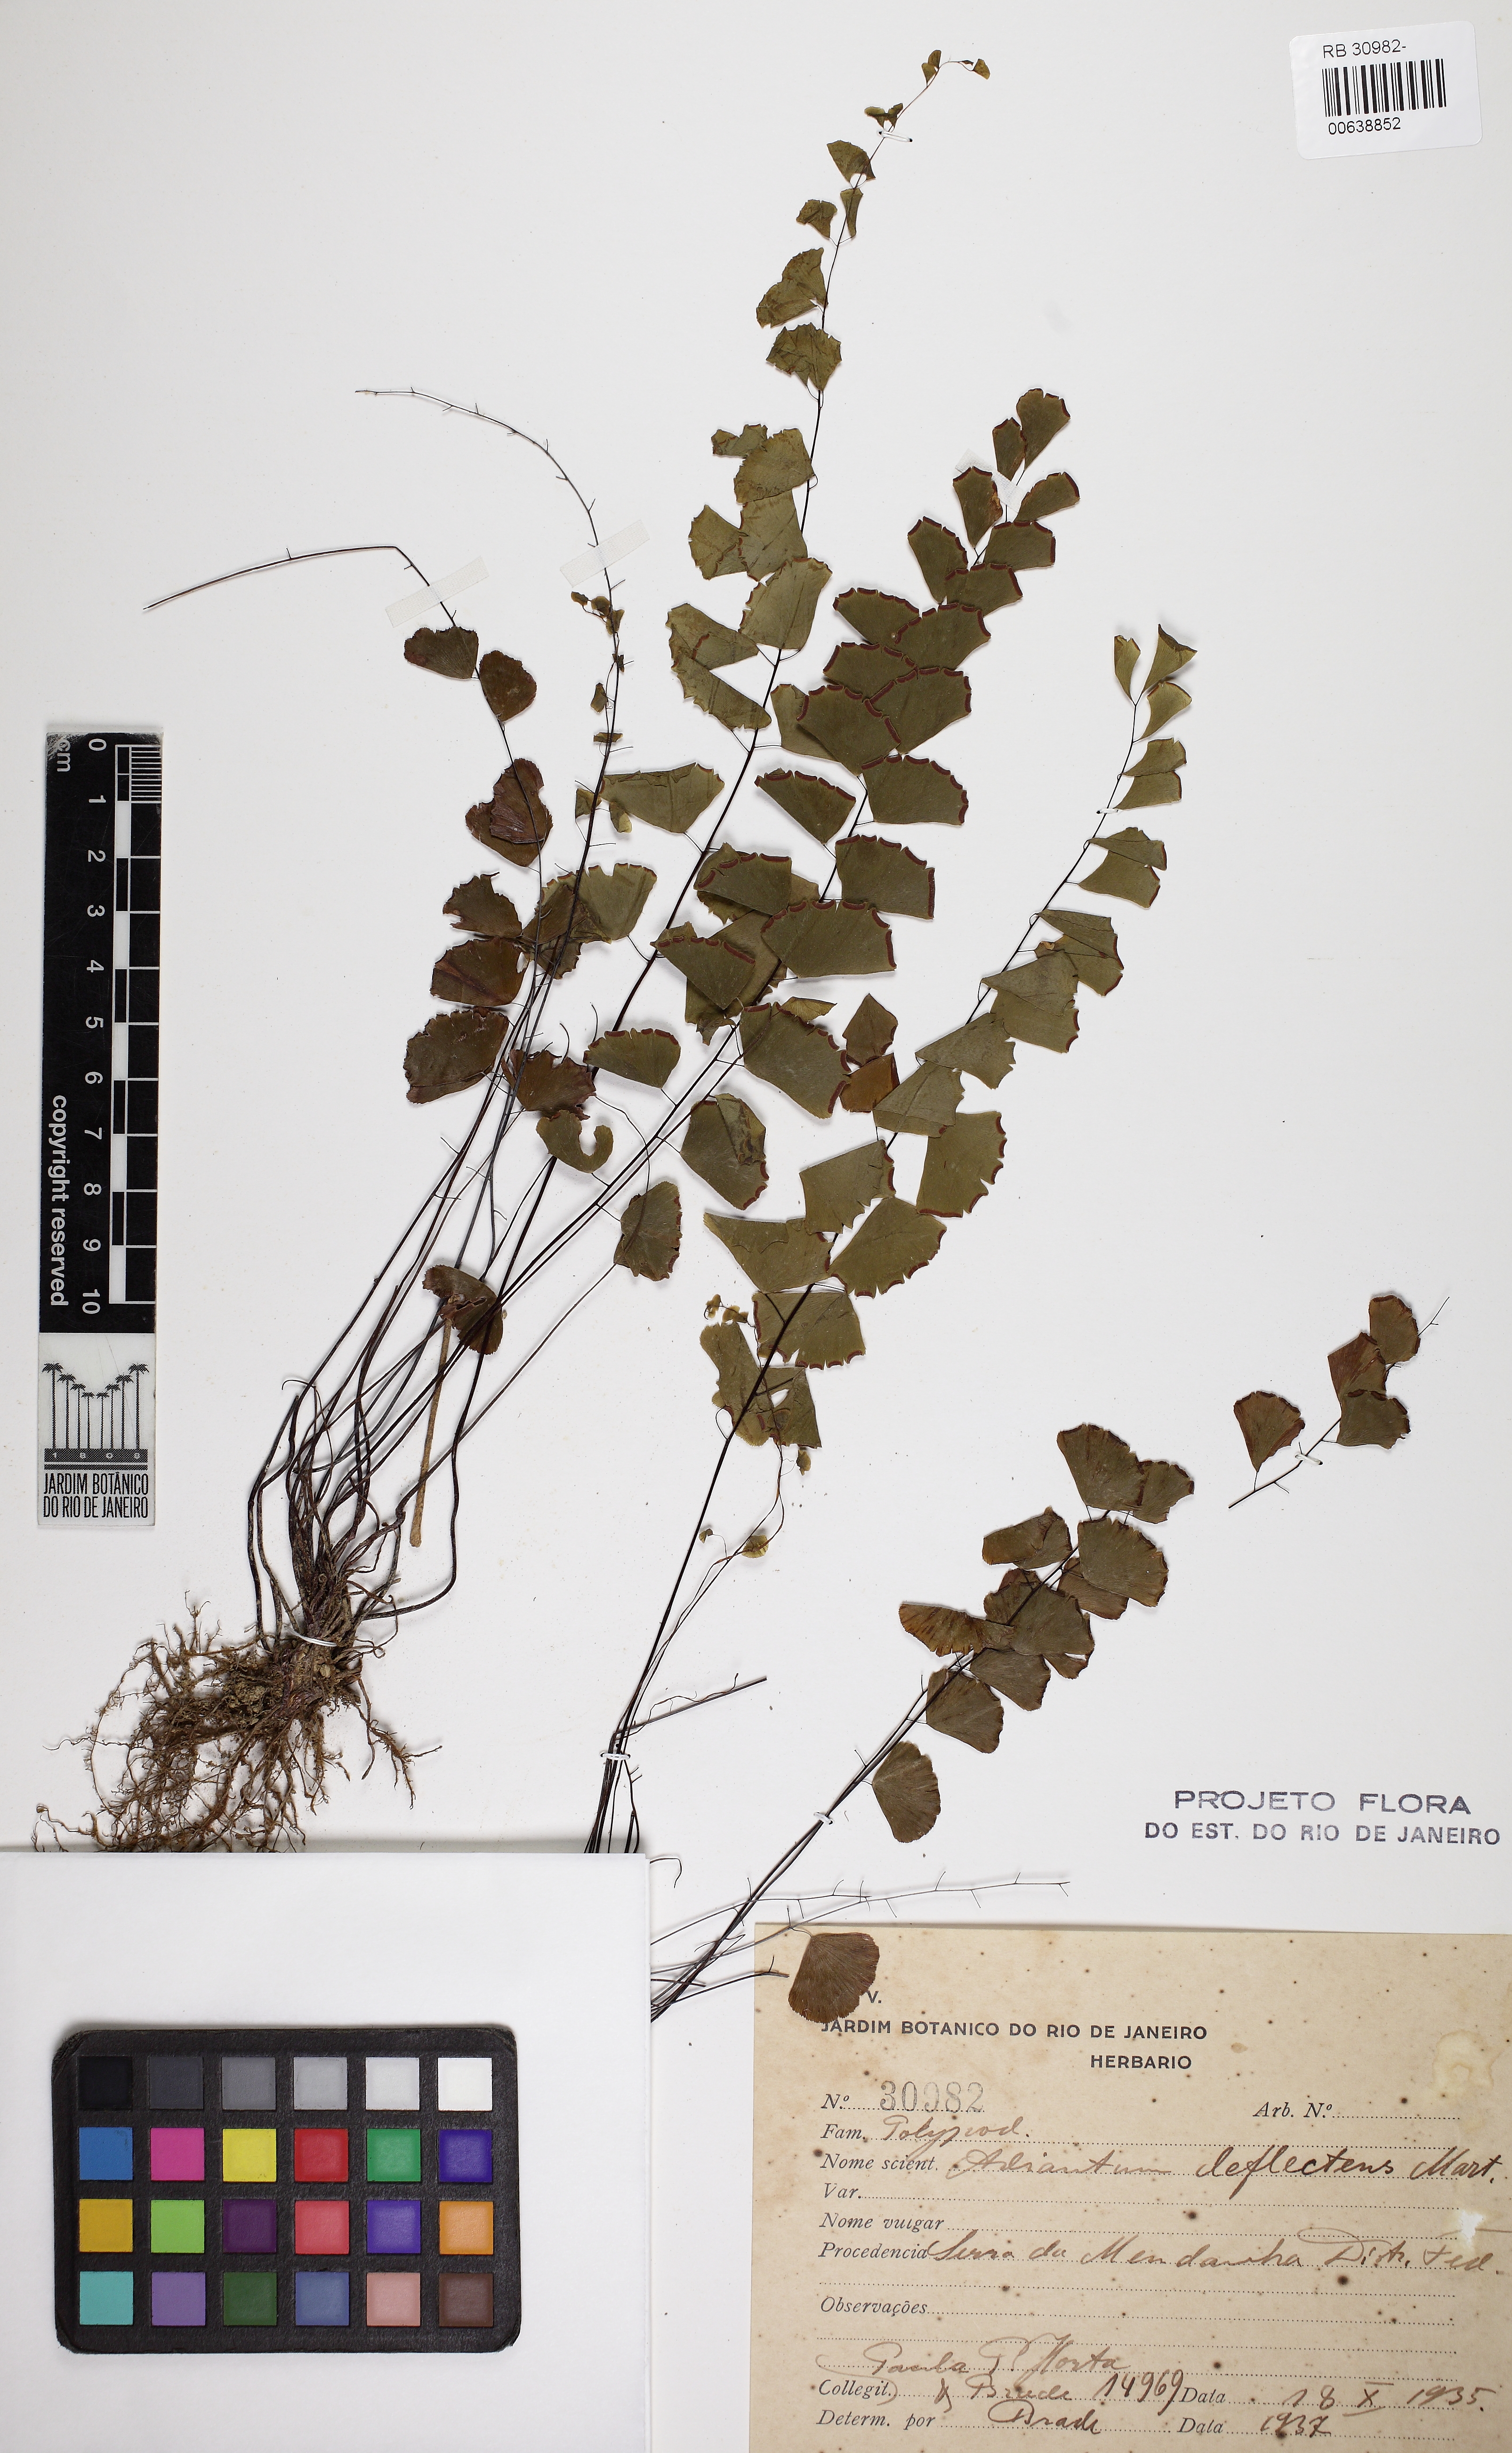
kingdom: Plantae
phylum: Tracheophyta
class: Polypodiopsida
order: Polypodiales
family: Pteridaceae
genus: Adiantum
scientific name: Adiantum deflectens
